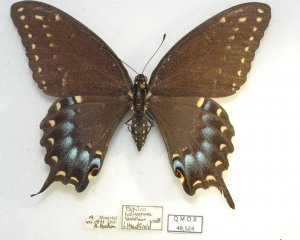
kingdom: Animalia
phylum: Arthropoda
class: Insecta
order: Lepidoptera
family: Papilionidae
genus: Papilio
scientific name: Papilio polyxenes
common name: Black Swallowtail
